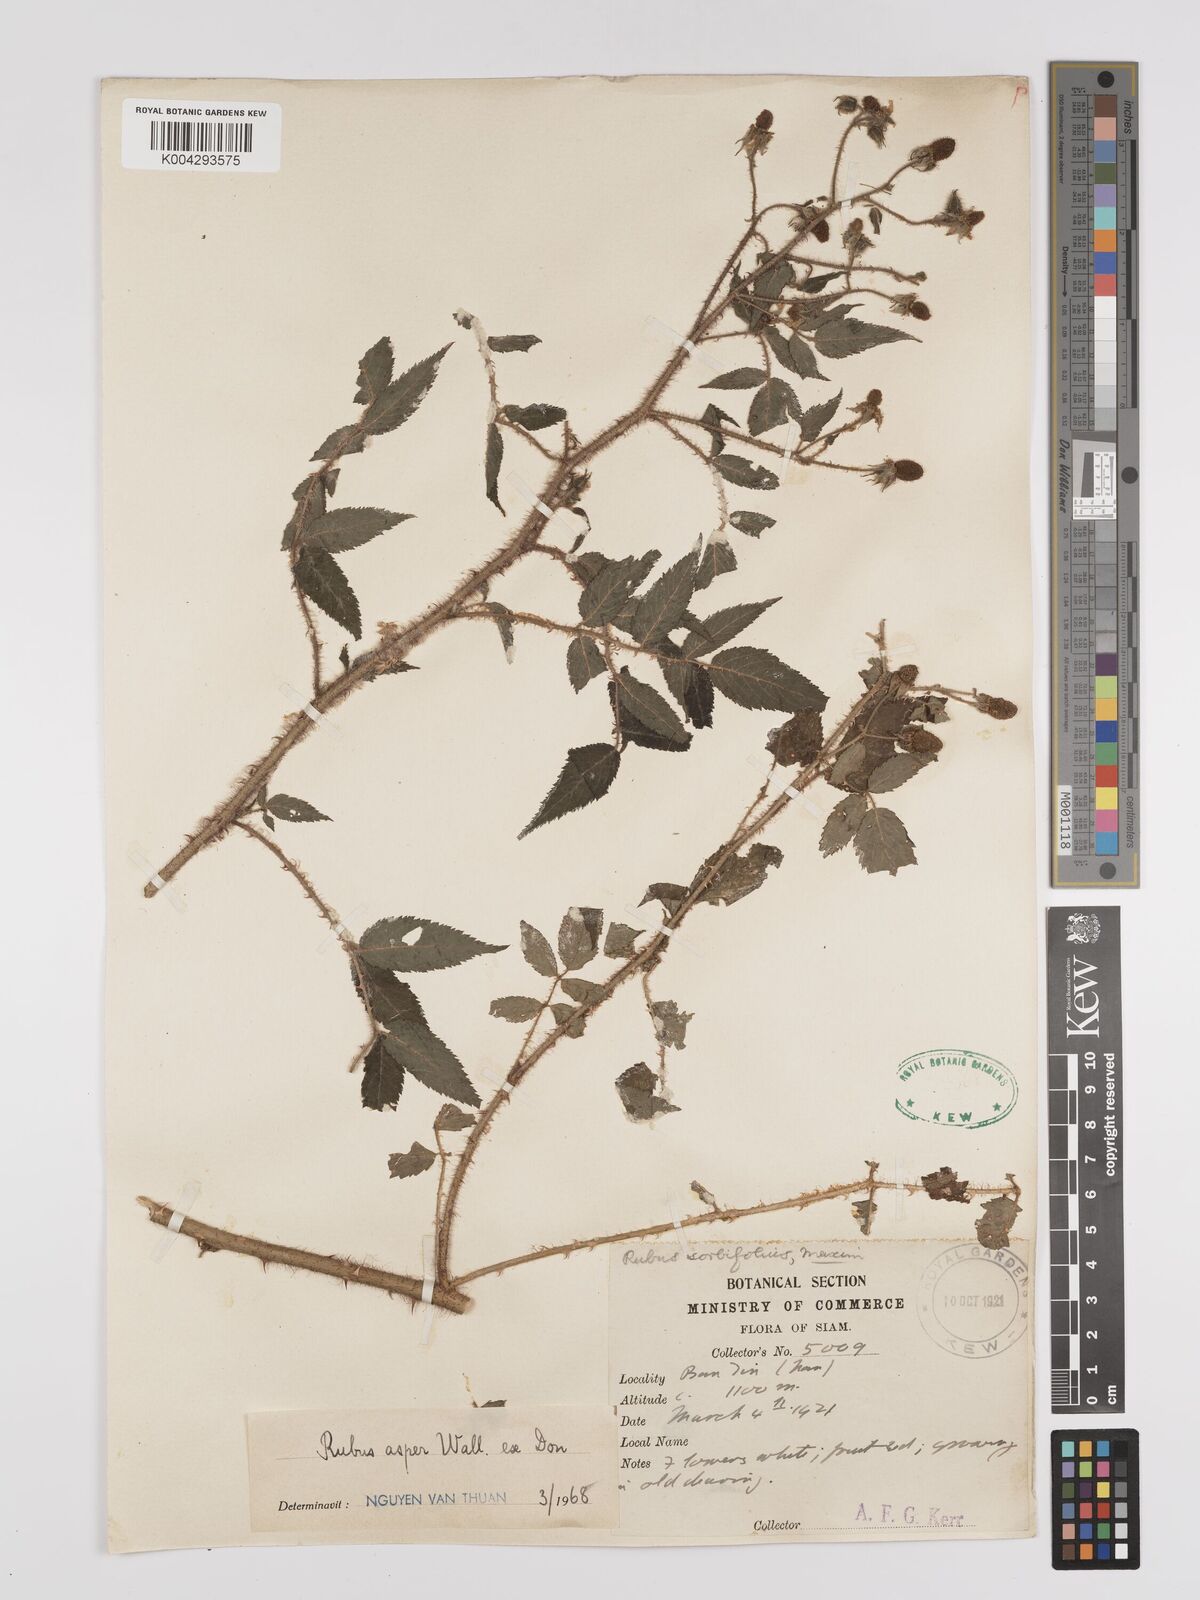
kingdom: Plantae
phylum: Tracheophyta
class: Magnoliopsida
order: Rosales
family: Rosaceae
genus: Rubus
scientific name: Rubus sumatranus
